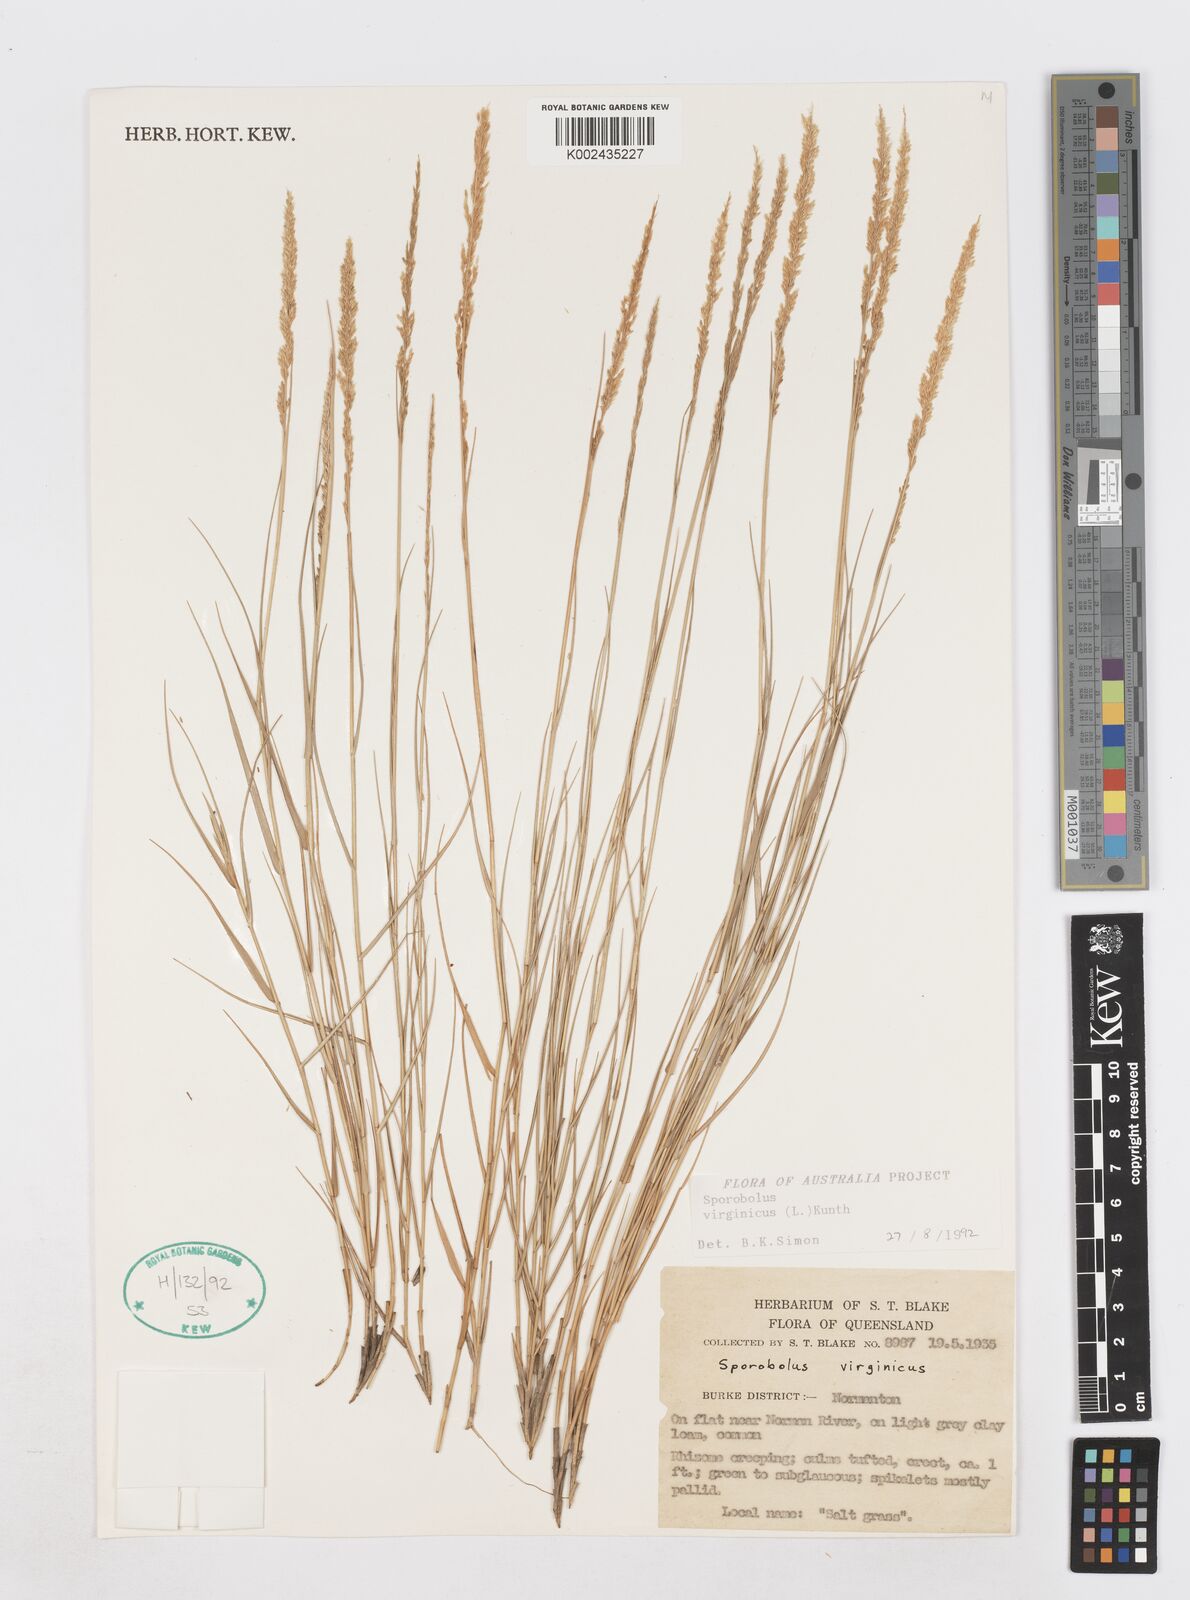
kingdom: Plantae
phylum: Tracheophyta
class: Liliopsida
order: Poales
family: Poaceae
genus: Sporobolus
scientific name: Sporobolus virginicus
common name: Beach dropseed
